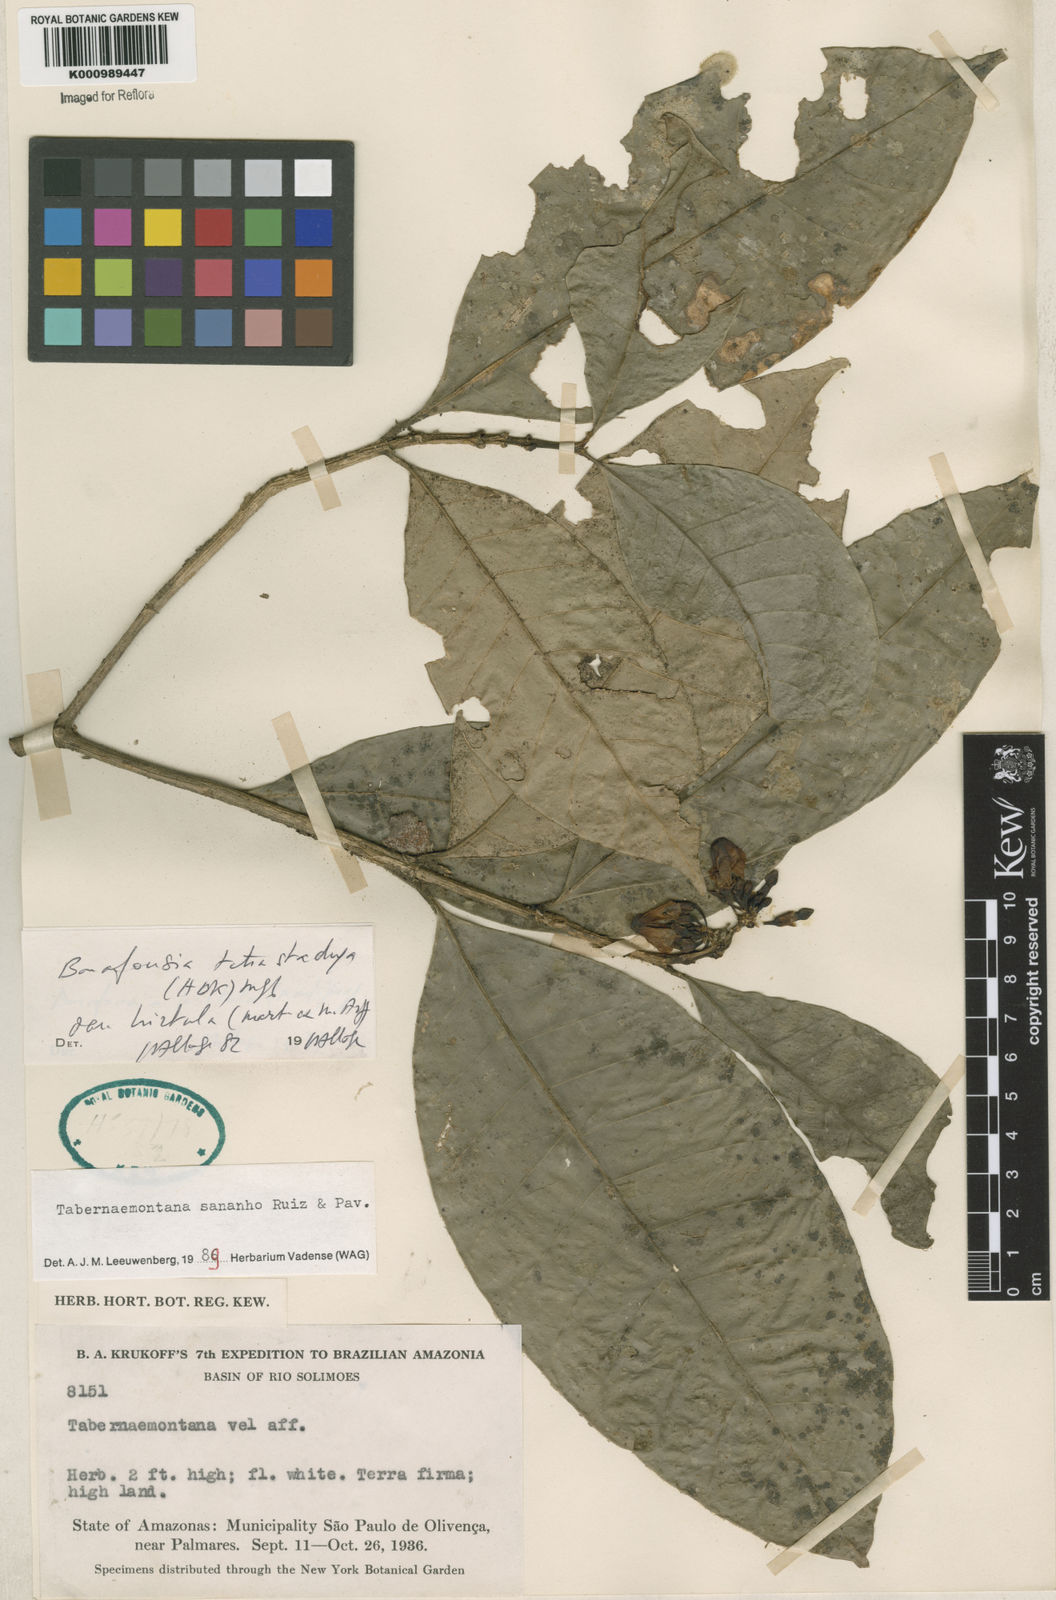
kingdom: Plantae
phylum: Tracheophyta
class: Magnoliopsida
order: Gentianales
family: Apocynaceae
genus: Tabernaemontana
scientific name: Tabernaemontana sananho
